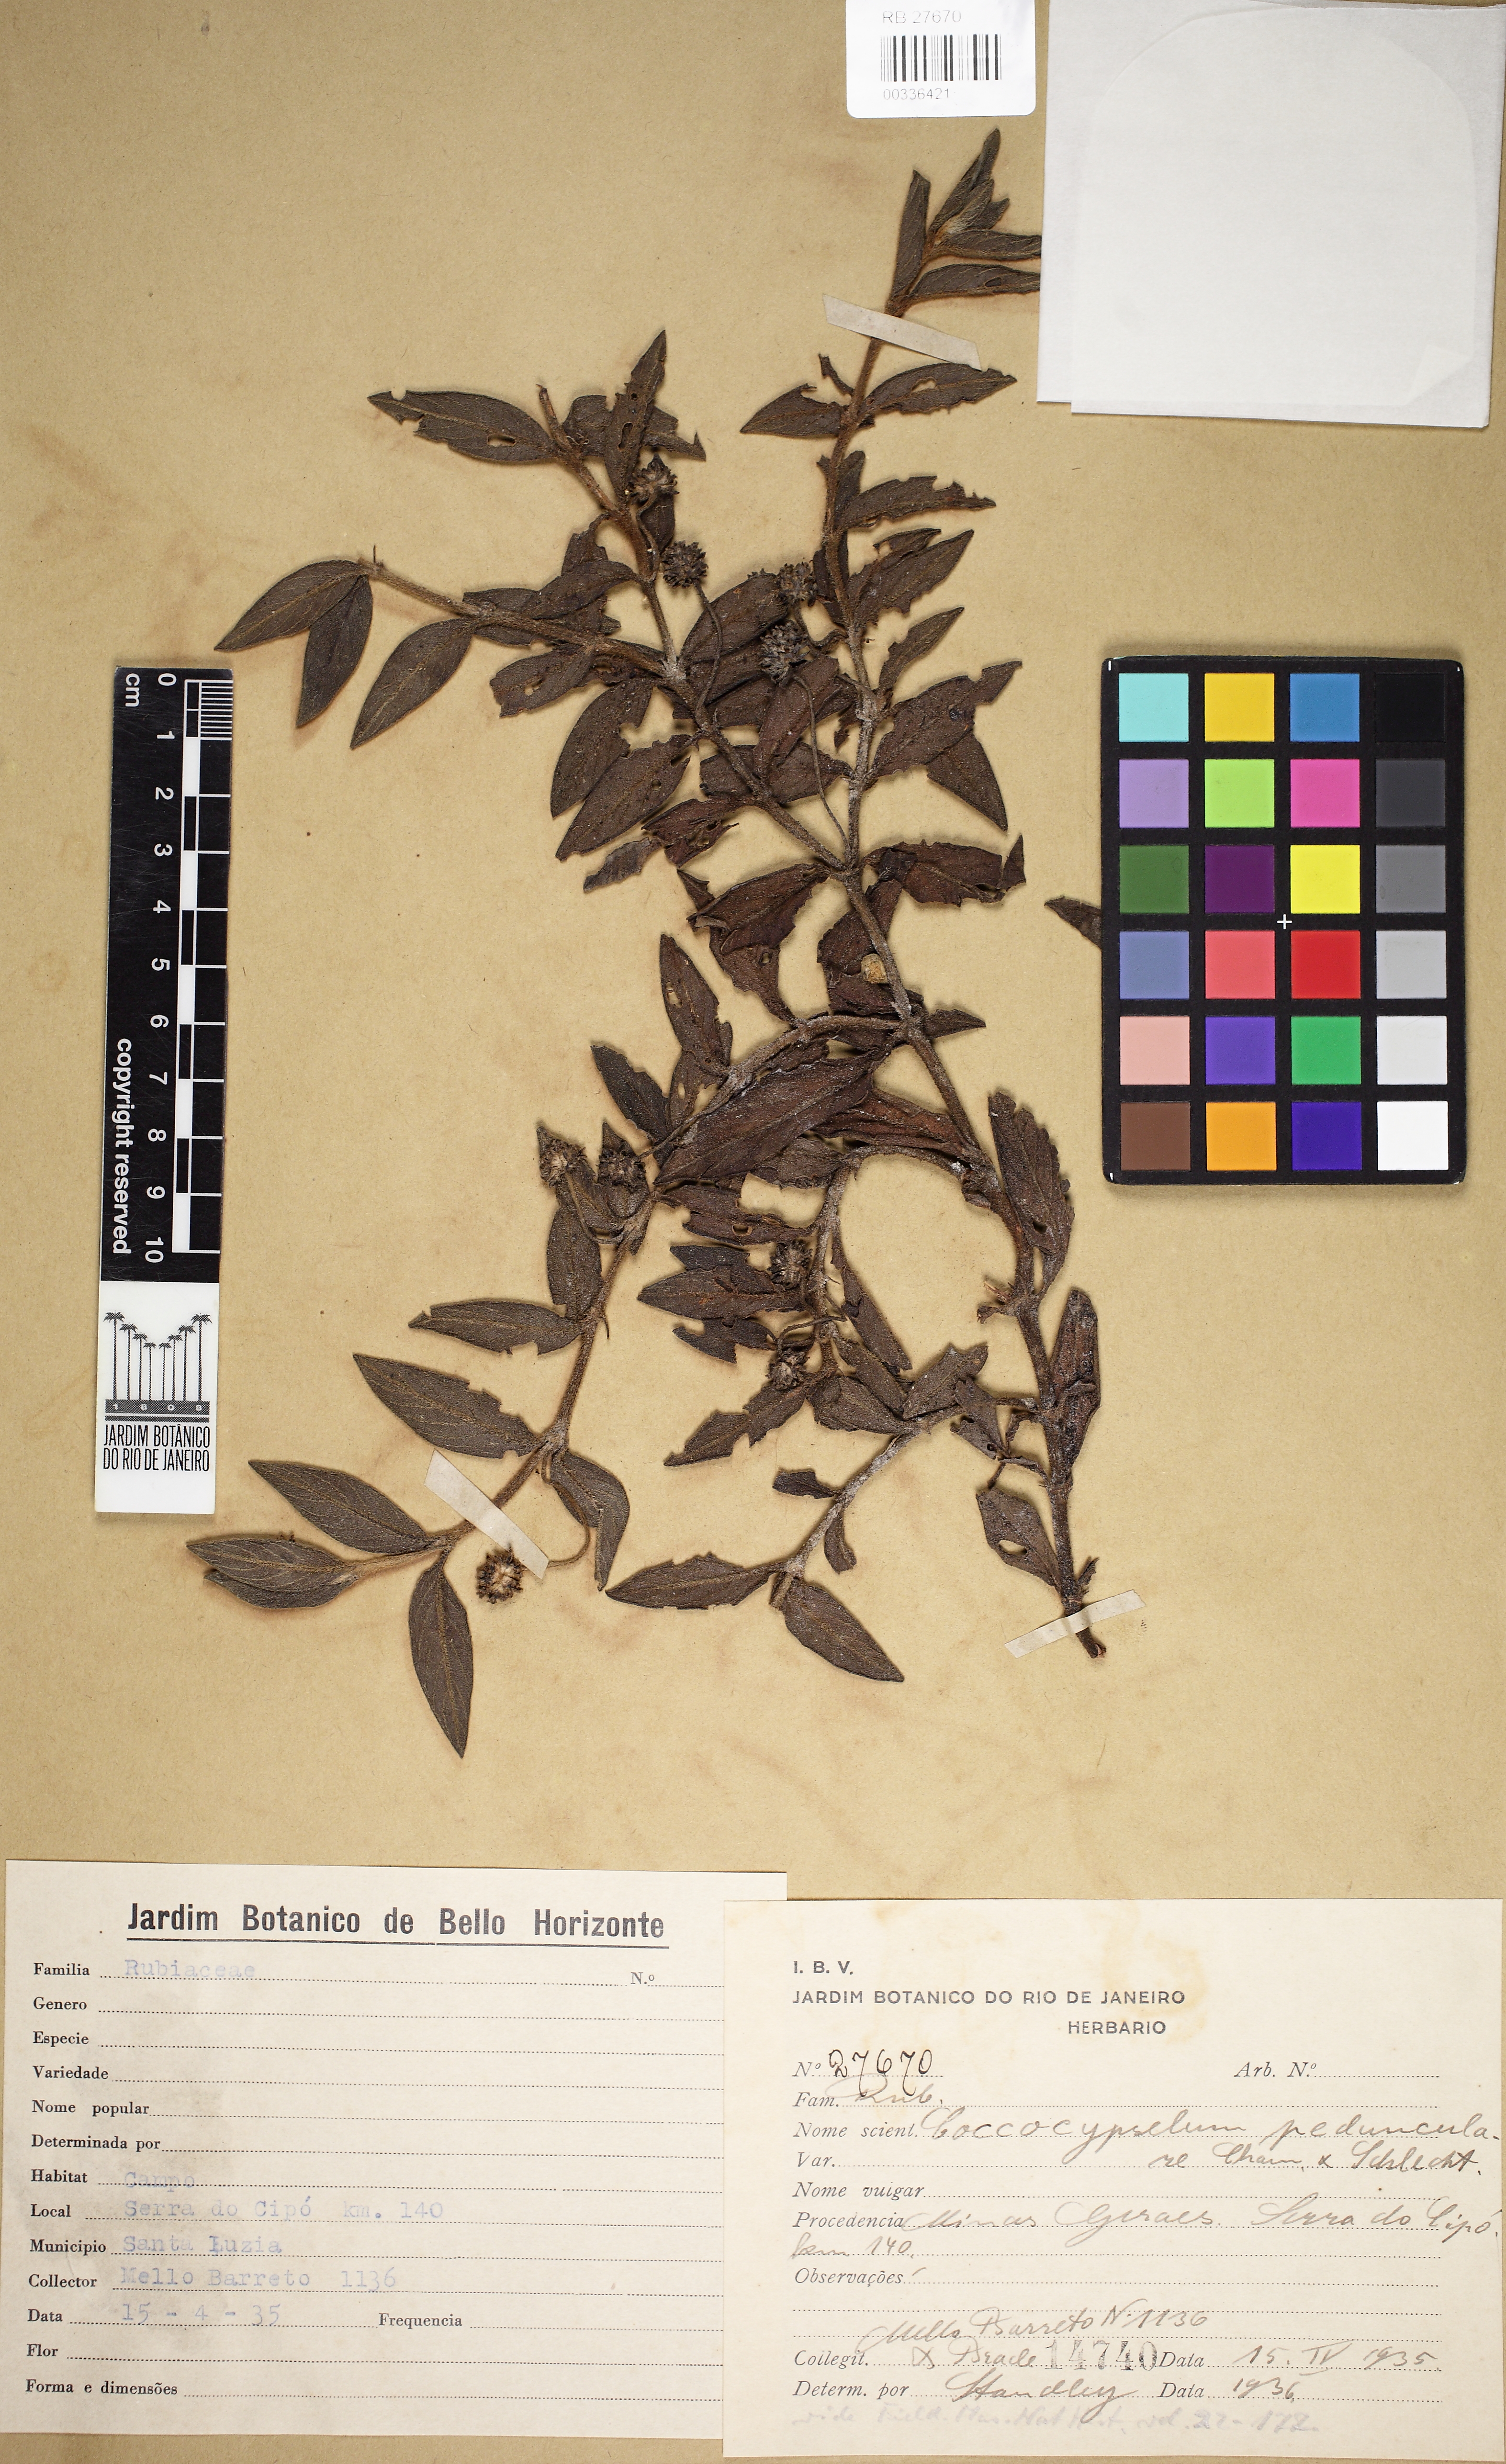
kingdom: Plantae
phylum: Tracheophyta
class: Magnoliopsida
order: Gentianales
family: Rubiaceae
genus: Coccocypselum
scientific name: Coccocypselum pedunculare
